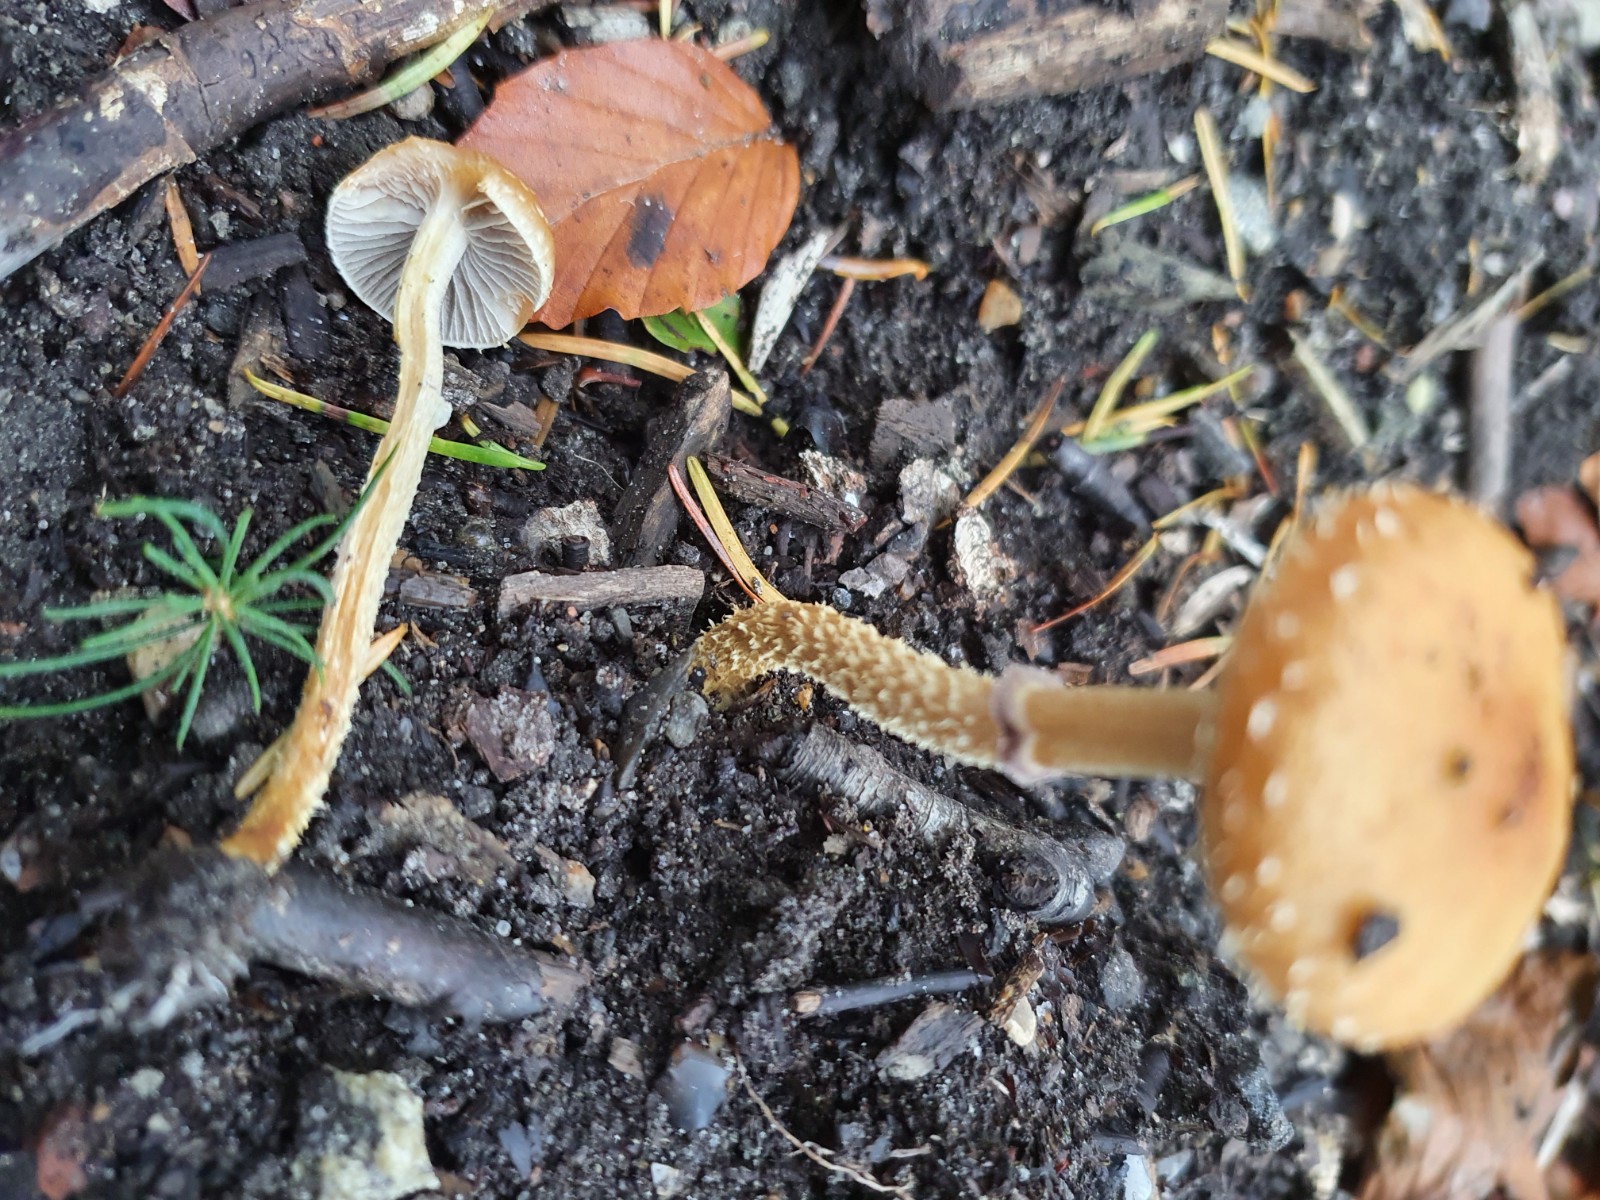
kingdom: Fungi
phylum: Basidiomycota
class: Agaricomycetes
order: Agaricales
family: Strophariaceae
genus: Leratiomyces
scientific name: Leratiomyces squamosus
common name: skællet bredblad
